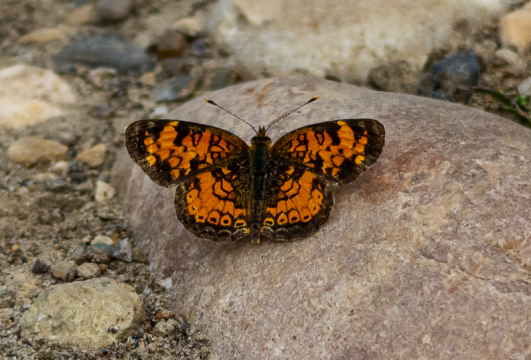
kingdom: Animalia
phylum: Arthropoda
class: Insecta
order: Lepidoptera
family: Nymphalidae
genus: Phyciodes
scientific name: Phyciodes tharos
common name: Northern Crescent
